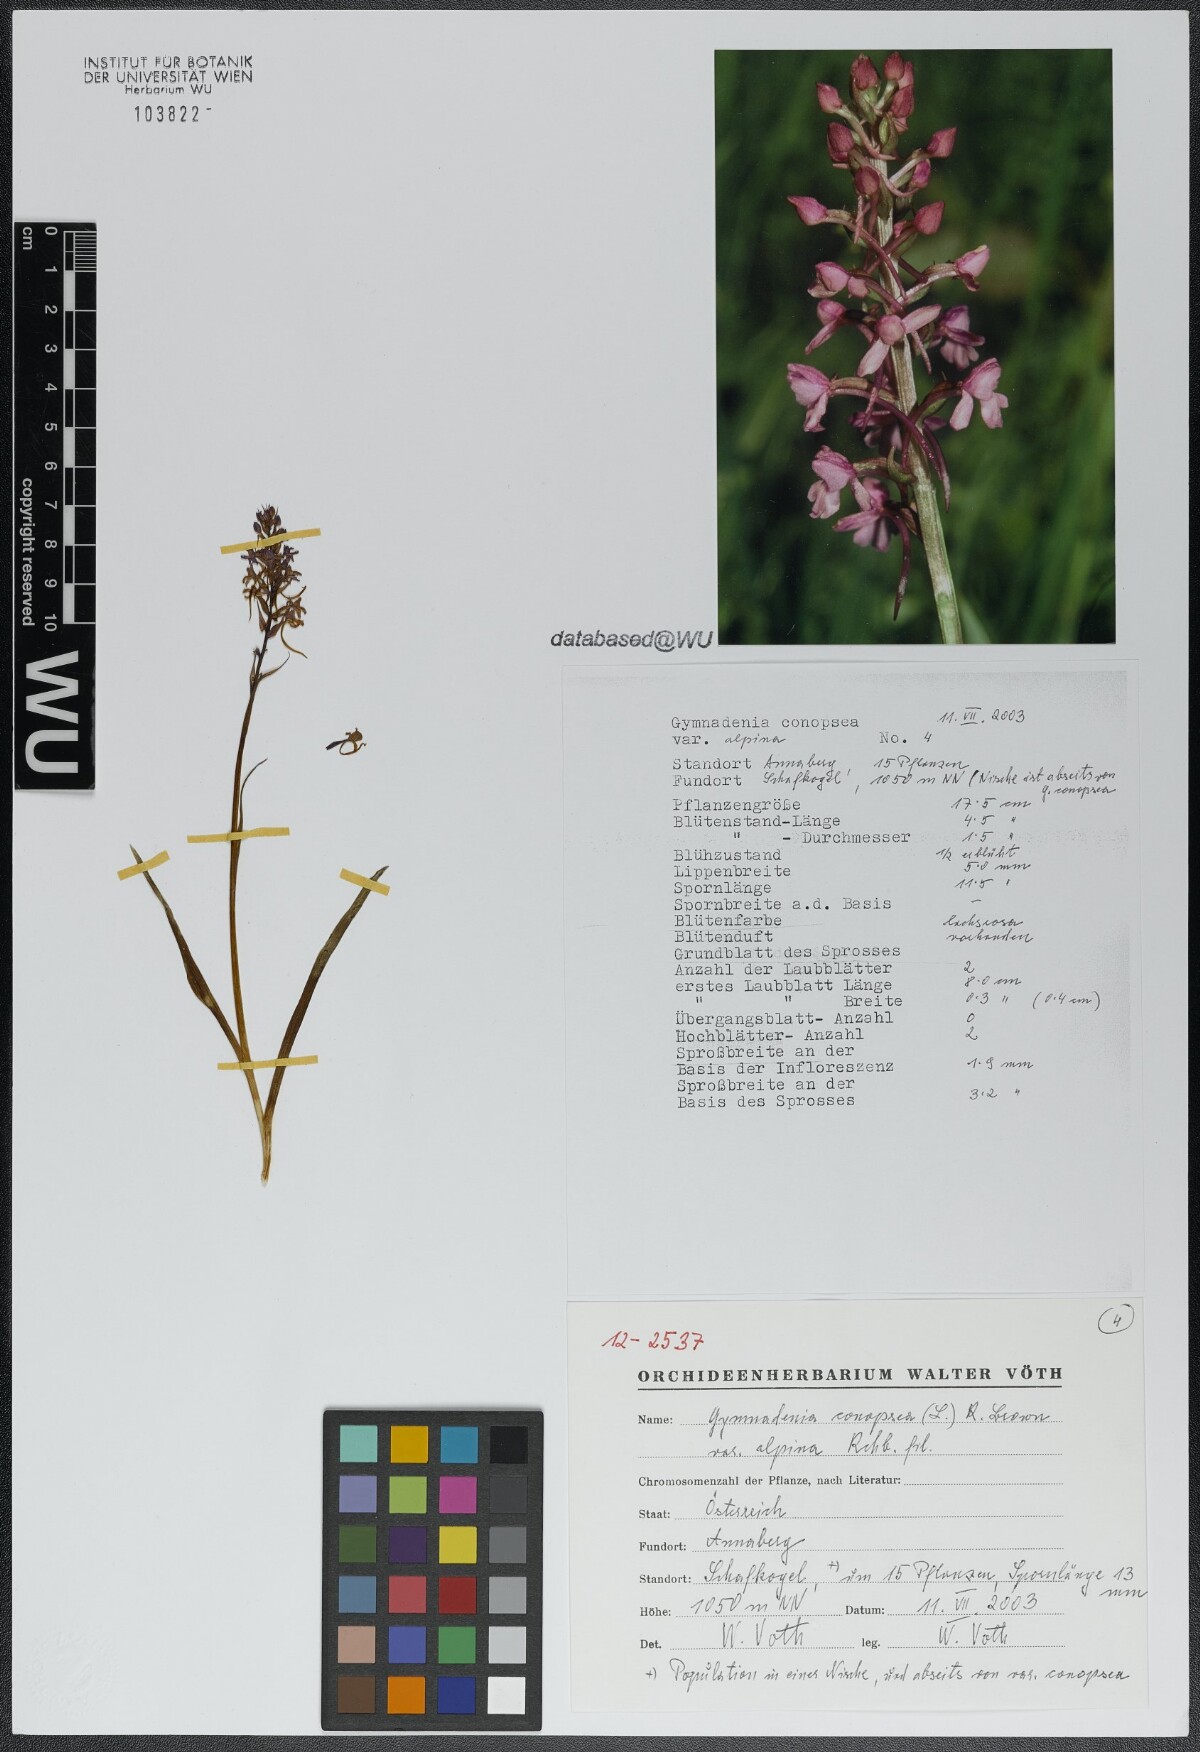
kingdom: Plantae
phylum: Tracheophyta
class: Liliopsida
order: Asparagales
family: Orchidaceae
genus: Gymnadenia
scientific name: Gymnadenia conopsea
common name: Fragrant orchid
